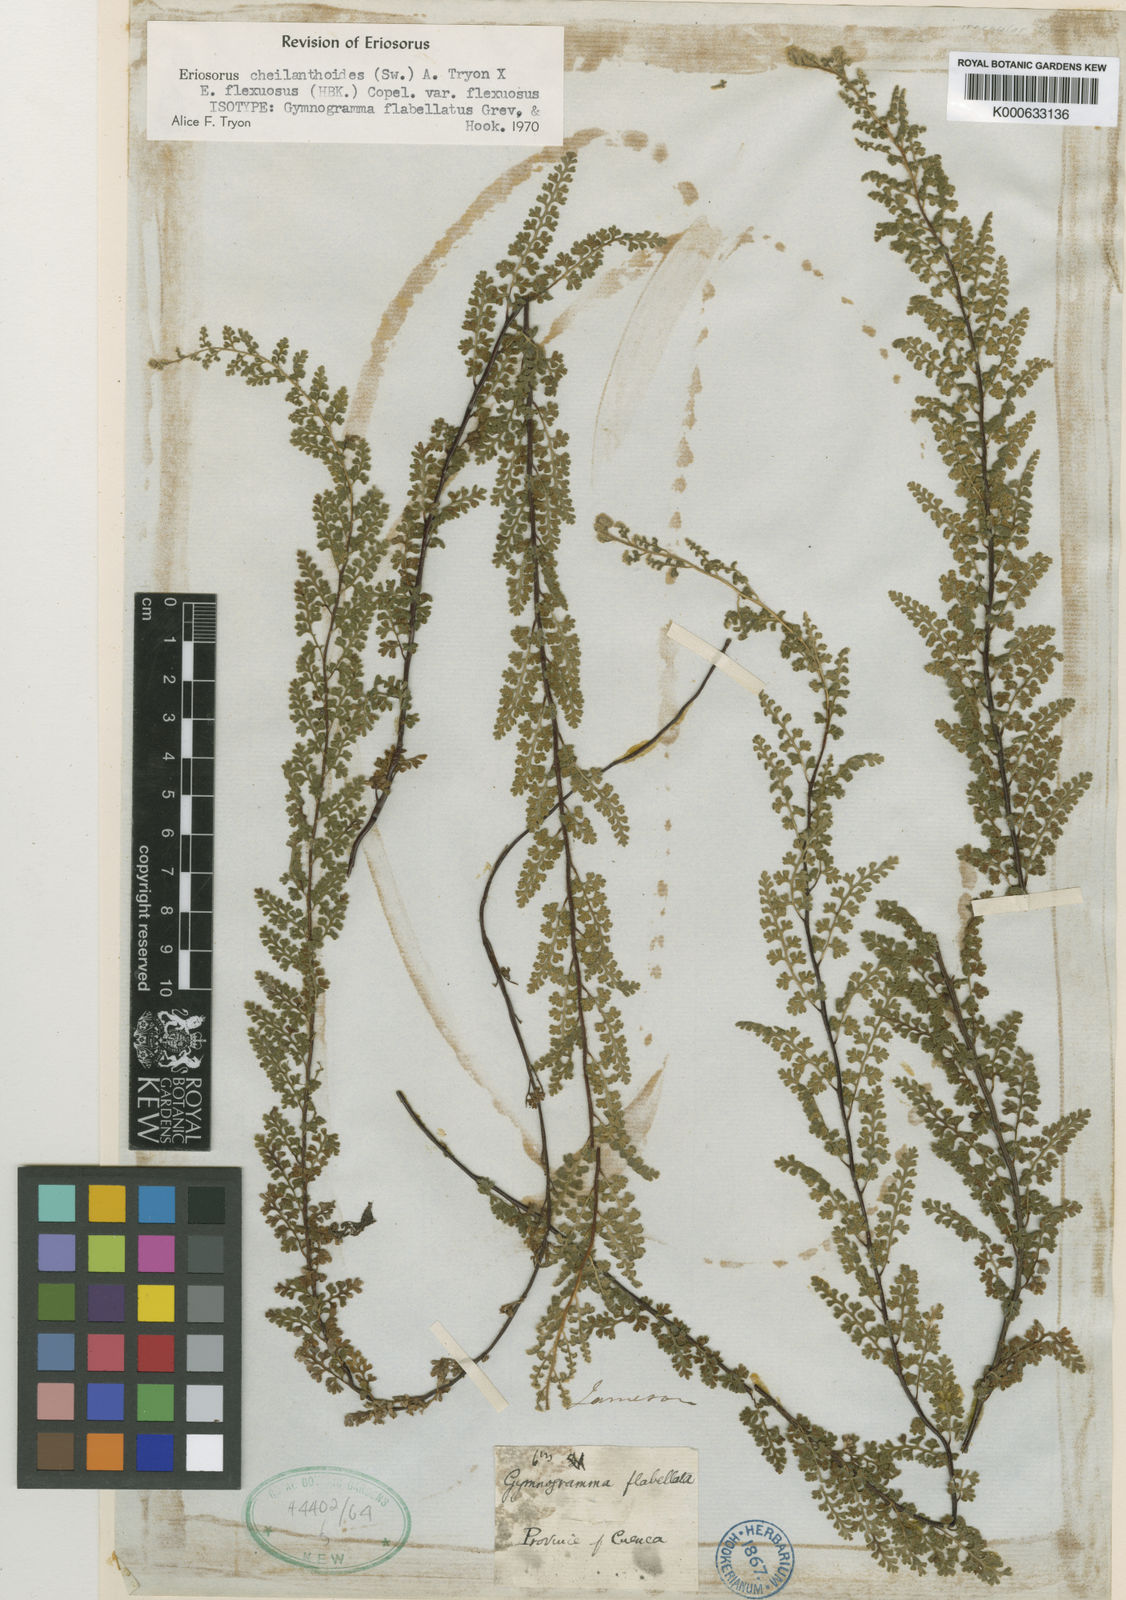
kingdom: Plantae
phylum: Tracheophyta
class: Polypodiopsida
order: Polypodiales
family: Pteridaceae
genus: Jamesonia
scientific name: Jamesonia flexuosa
